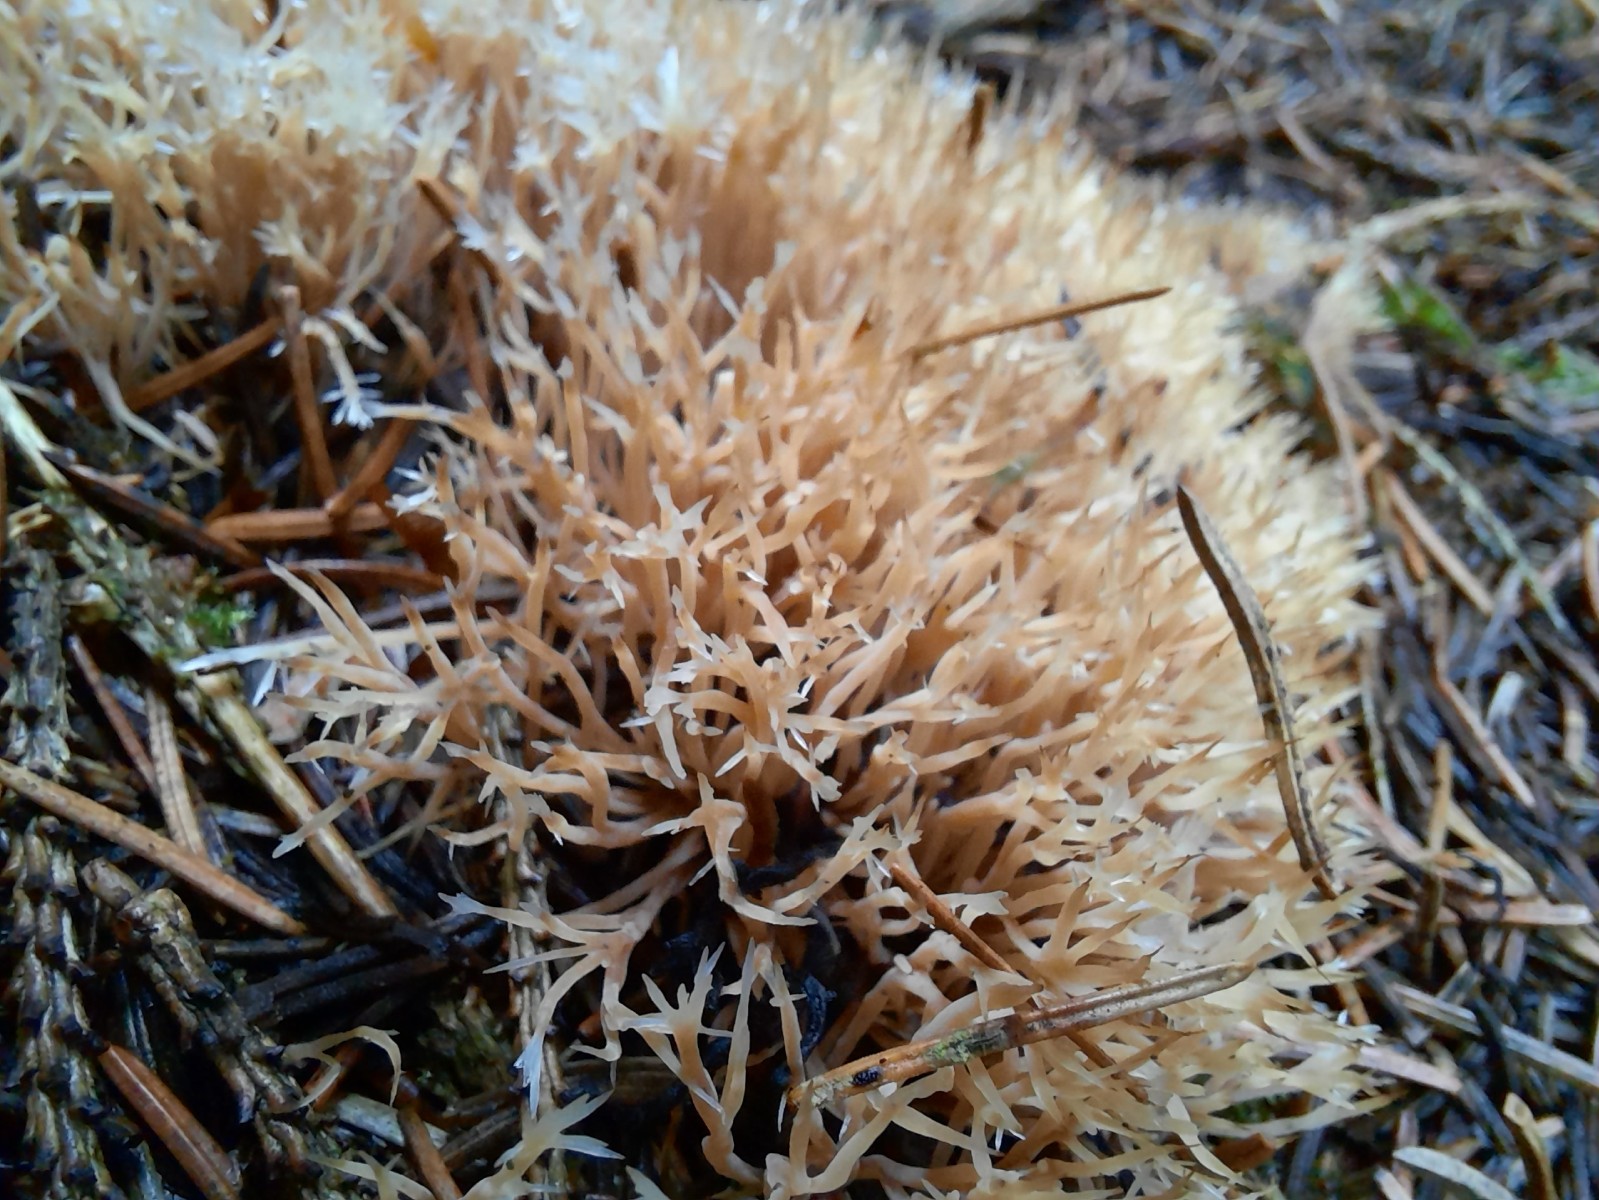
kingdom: Fungi
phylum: Basidiomycota
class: Agaricomycetes
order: Agaricales
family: Pterulaceae
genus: Pterula
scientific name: Pterula multifida
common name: busket fjerkølle
